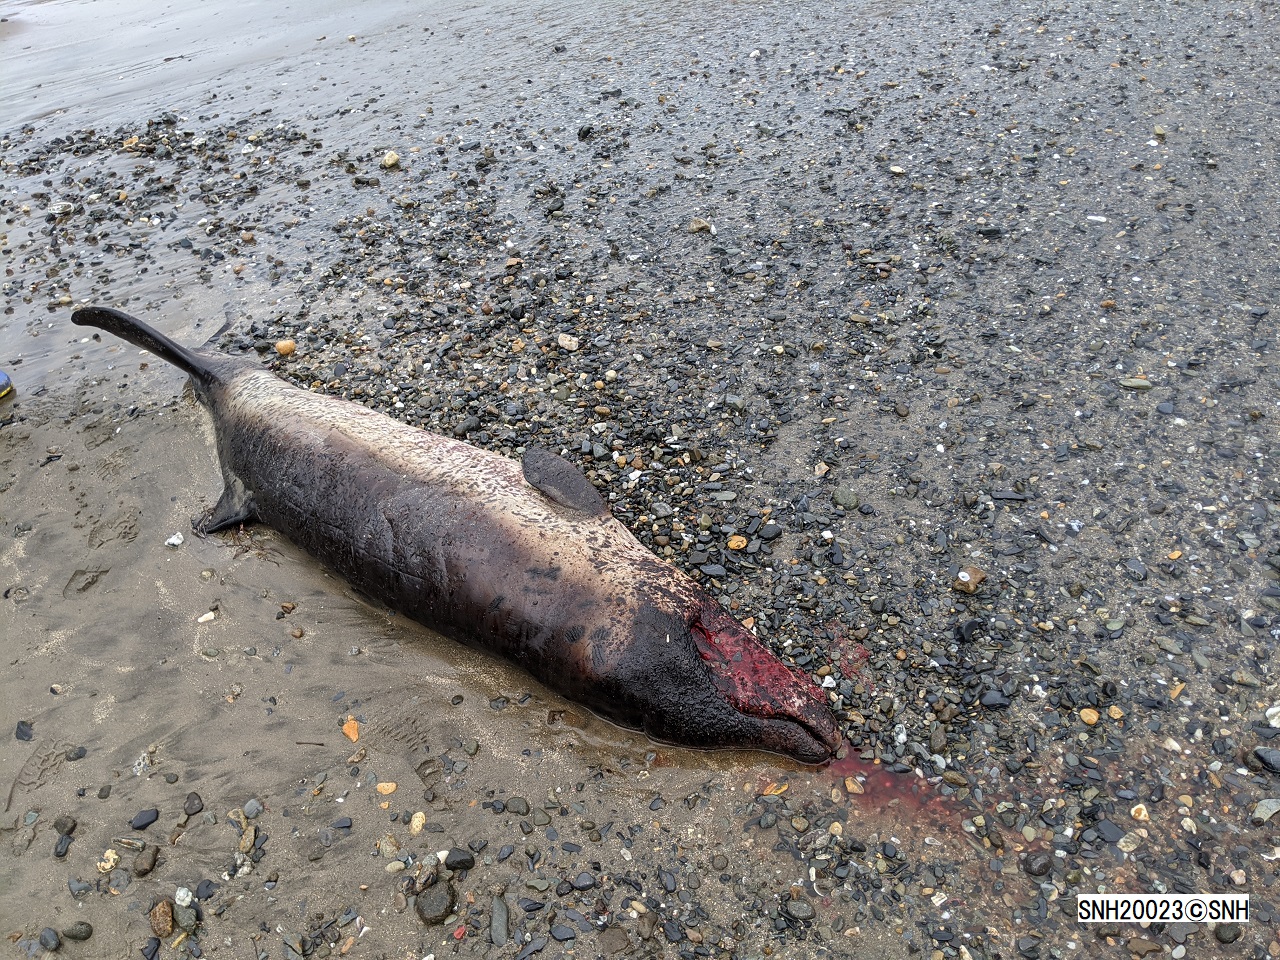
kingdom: Animalia
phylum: Chordata
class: Mammalia
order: Cetacea
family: Hyperoodontidae
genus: Mesoplodon
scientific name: Mesoplodon stejnegeri
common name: Stejneger's beaked whale
